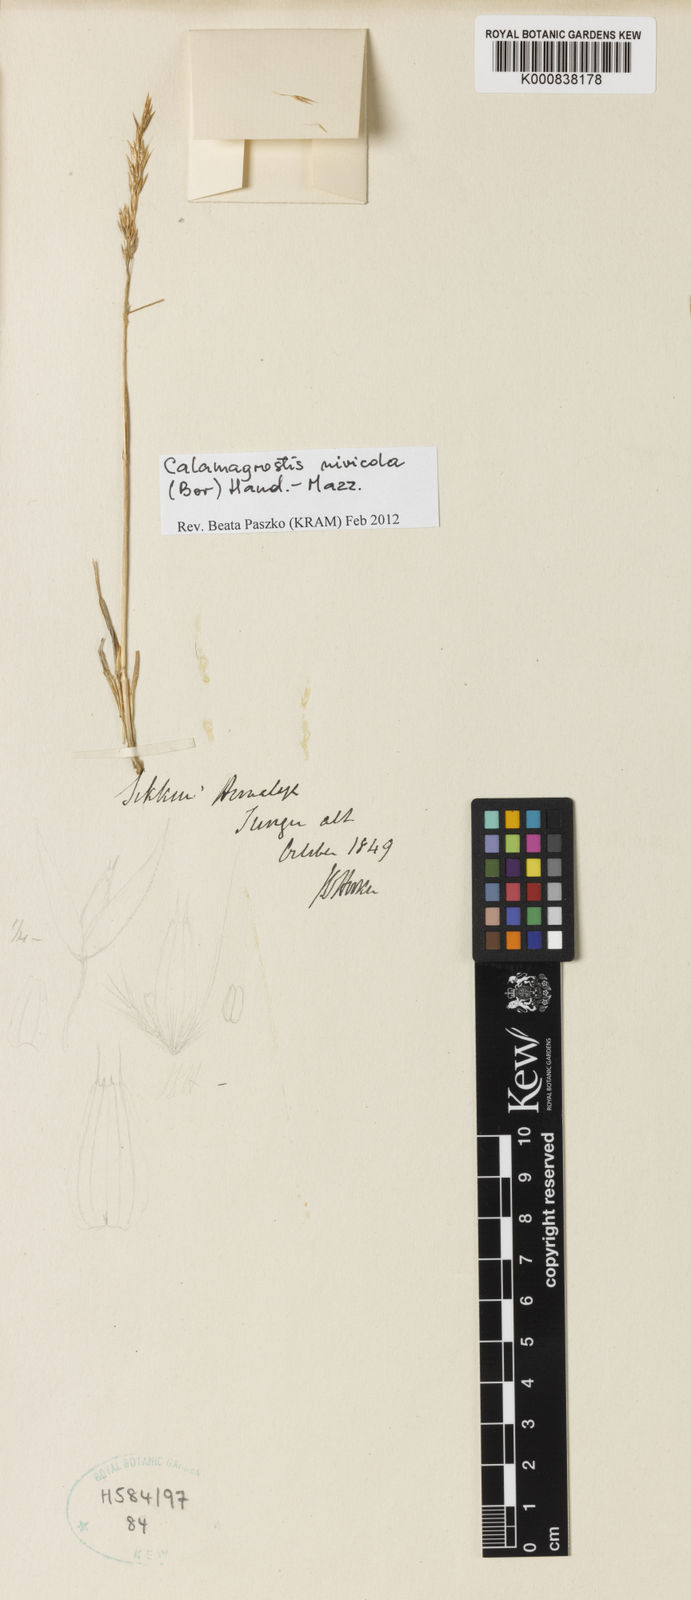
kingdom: Plantae
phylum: Tracheophyta
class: Liliopsida
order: Poales
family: Poaceae
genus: Calamagrostis
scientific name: Calamagrostis filiformis
